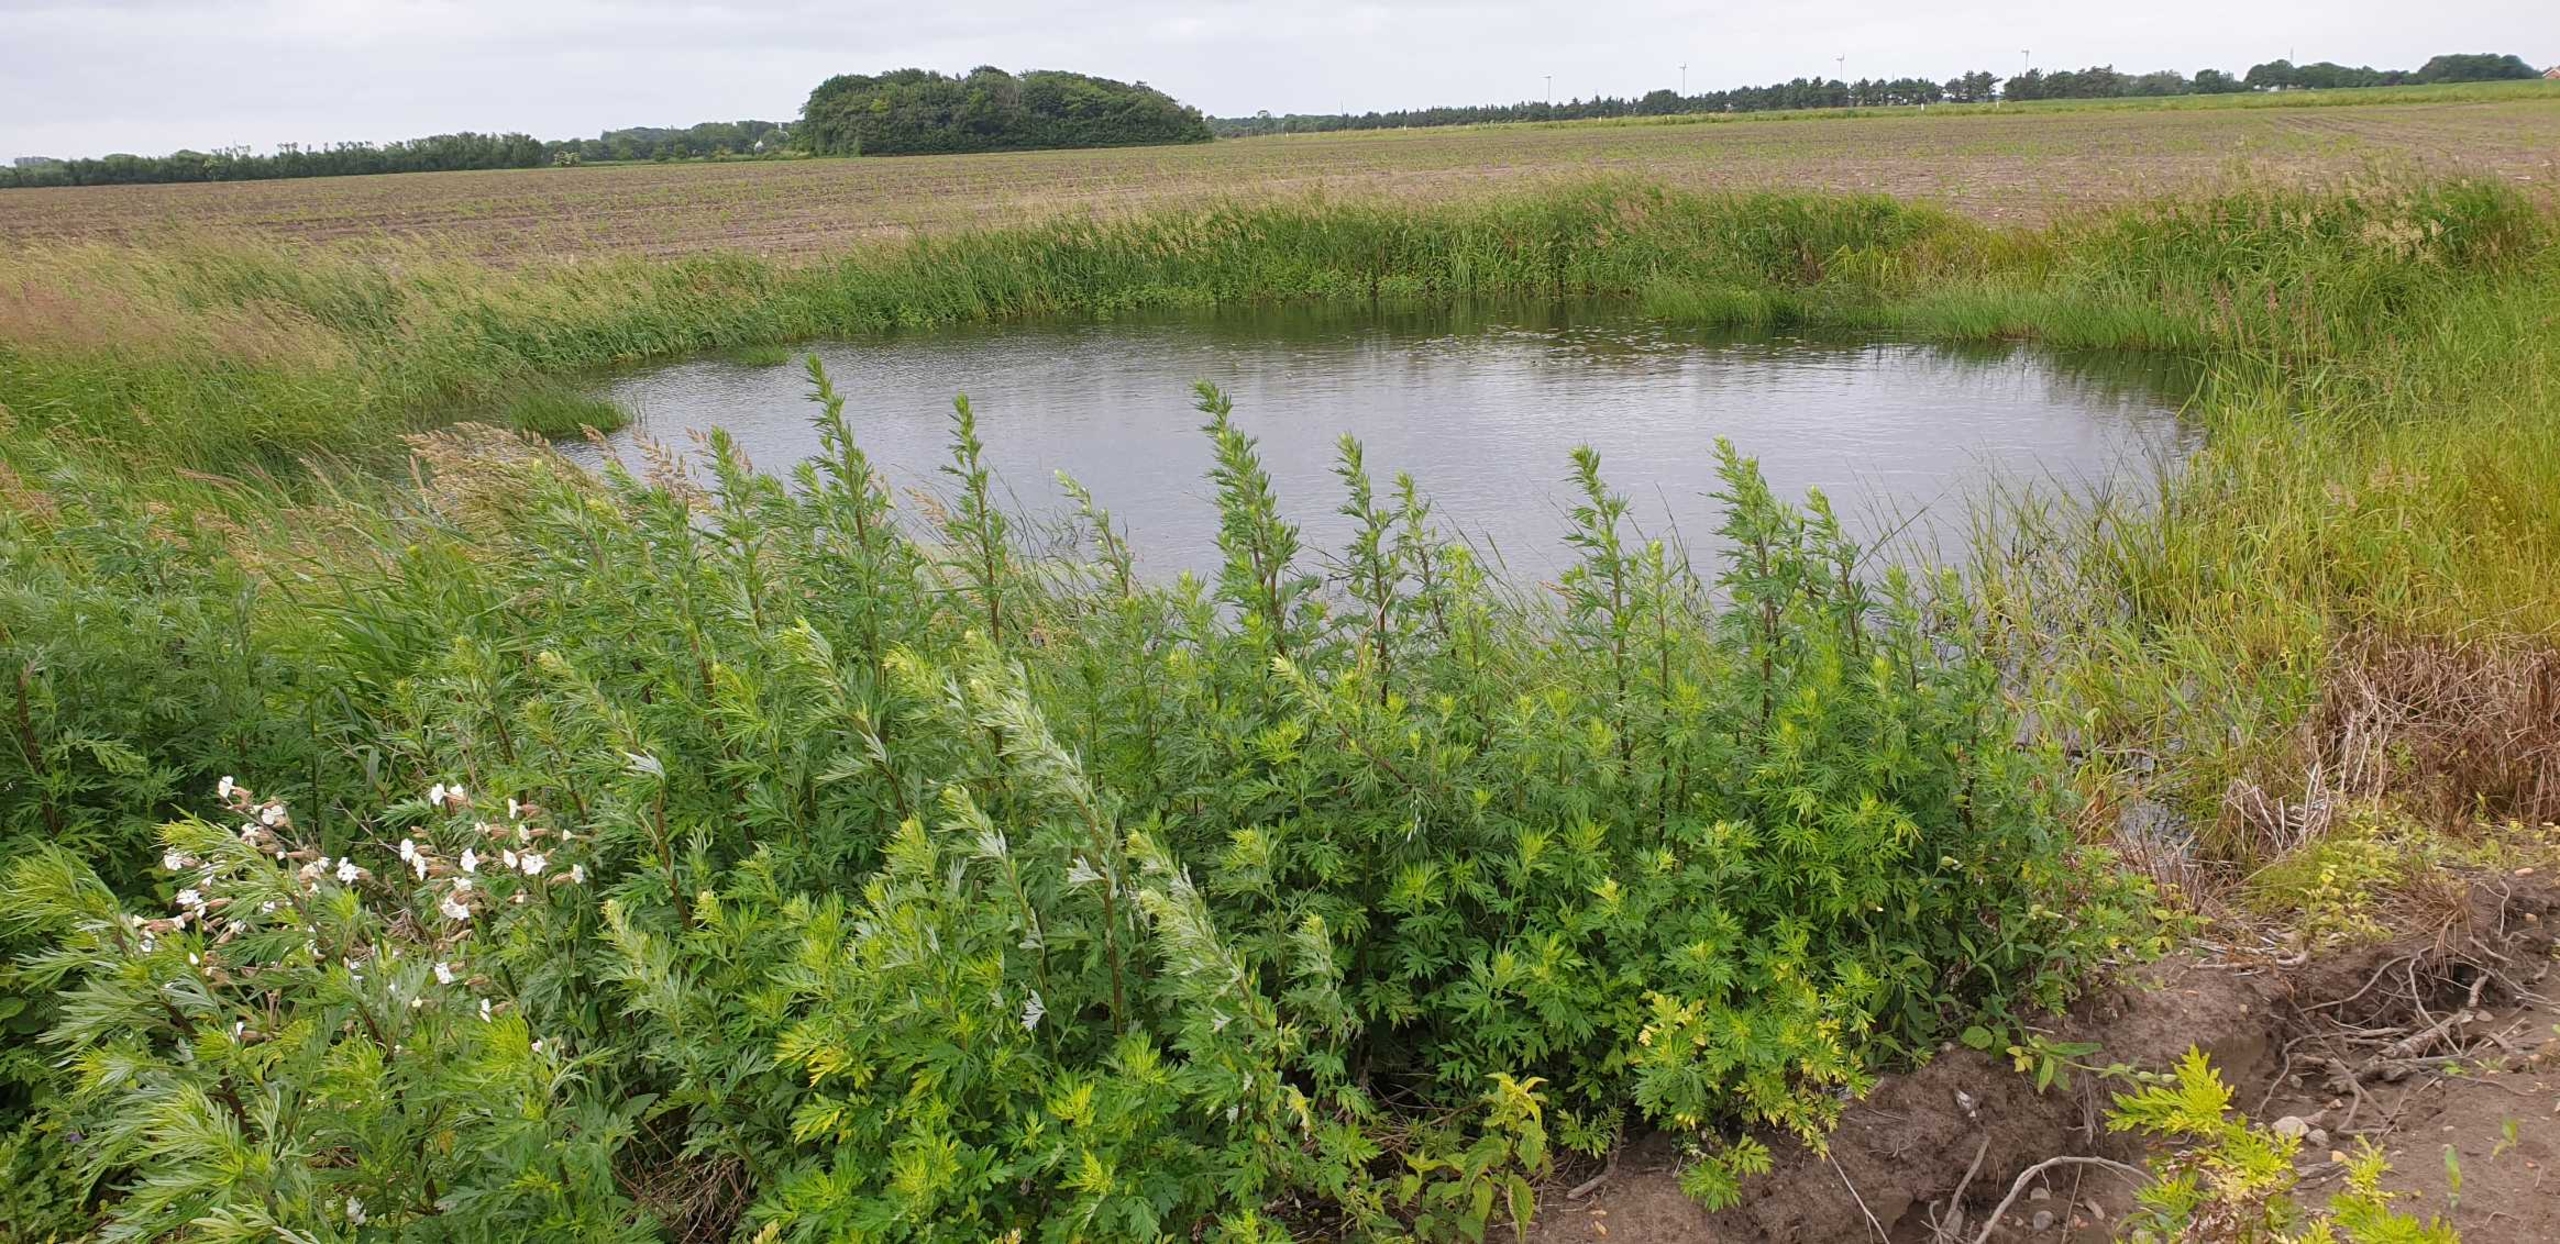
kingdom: Plantae
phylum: Tracheophyta
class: Magnoliopsida
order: Asterales
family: Asteraceae
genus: Artemisia
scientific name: Artemisia vulgaris
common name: Grå-bynke
